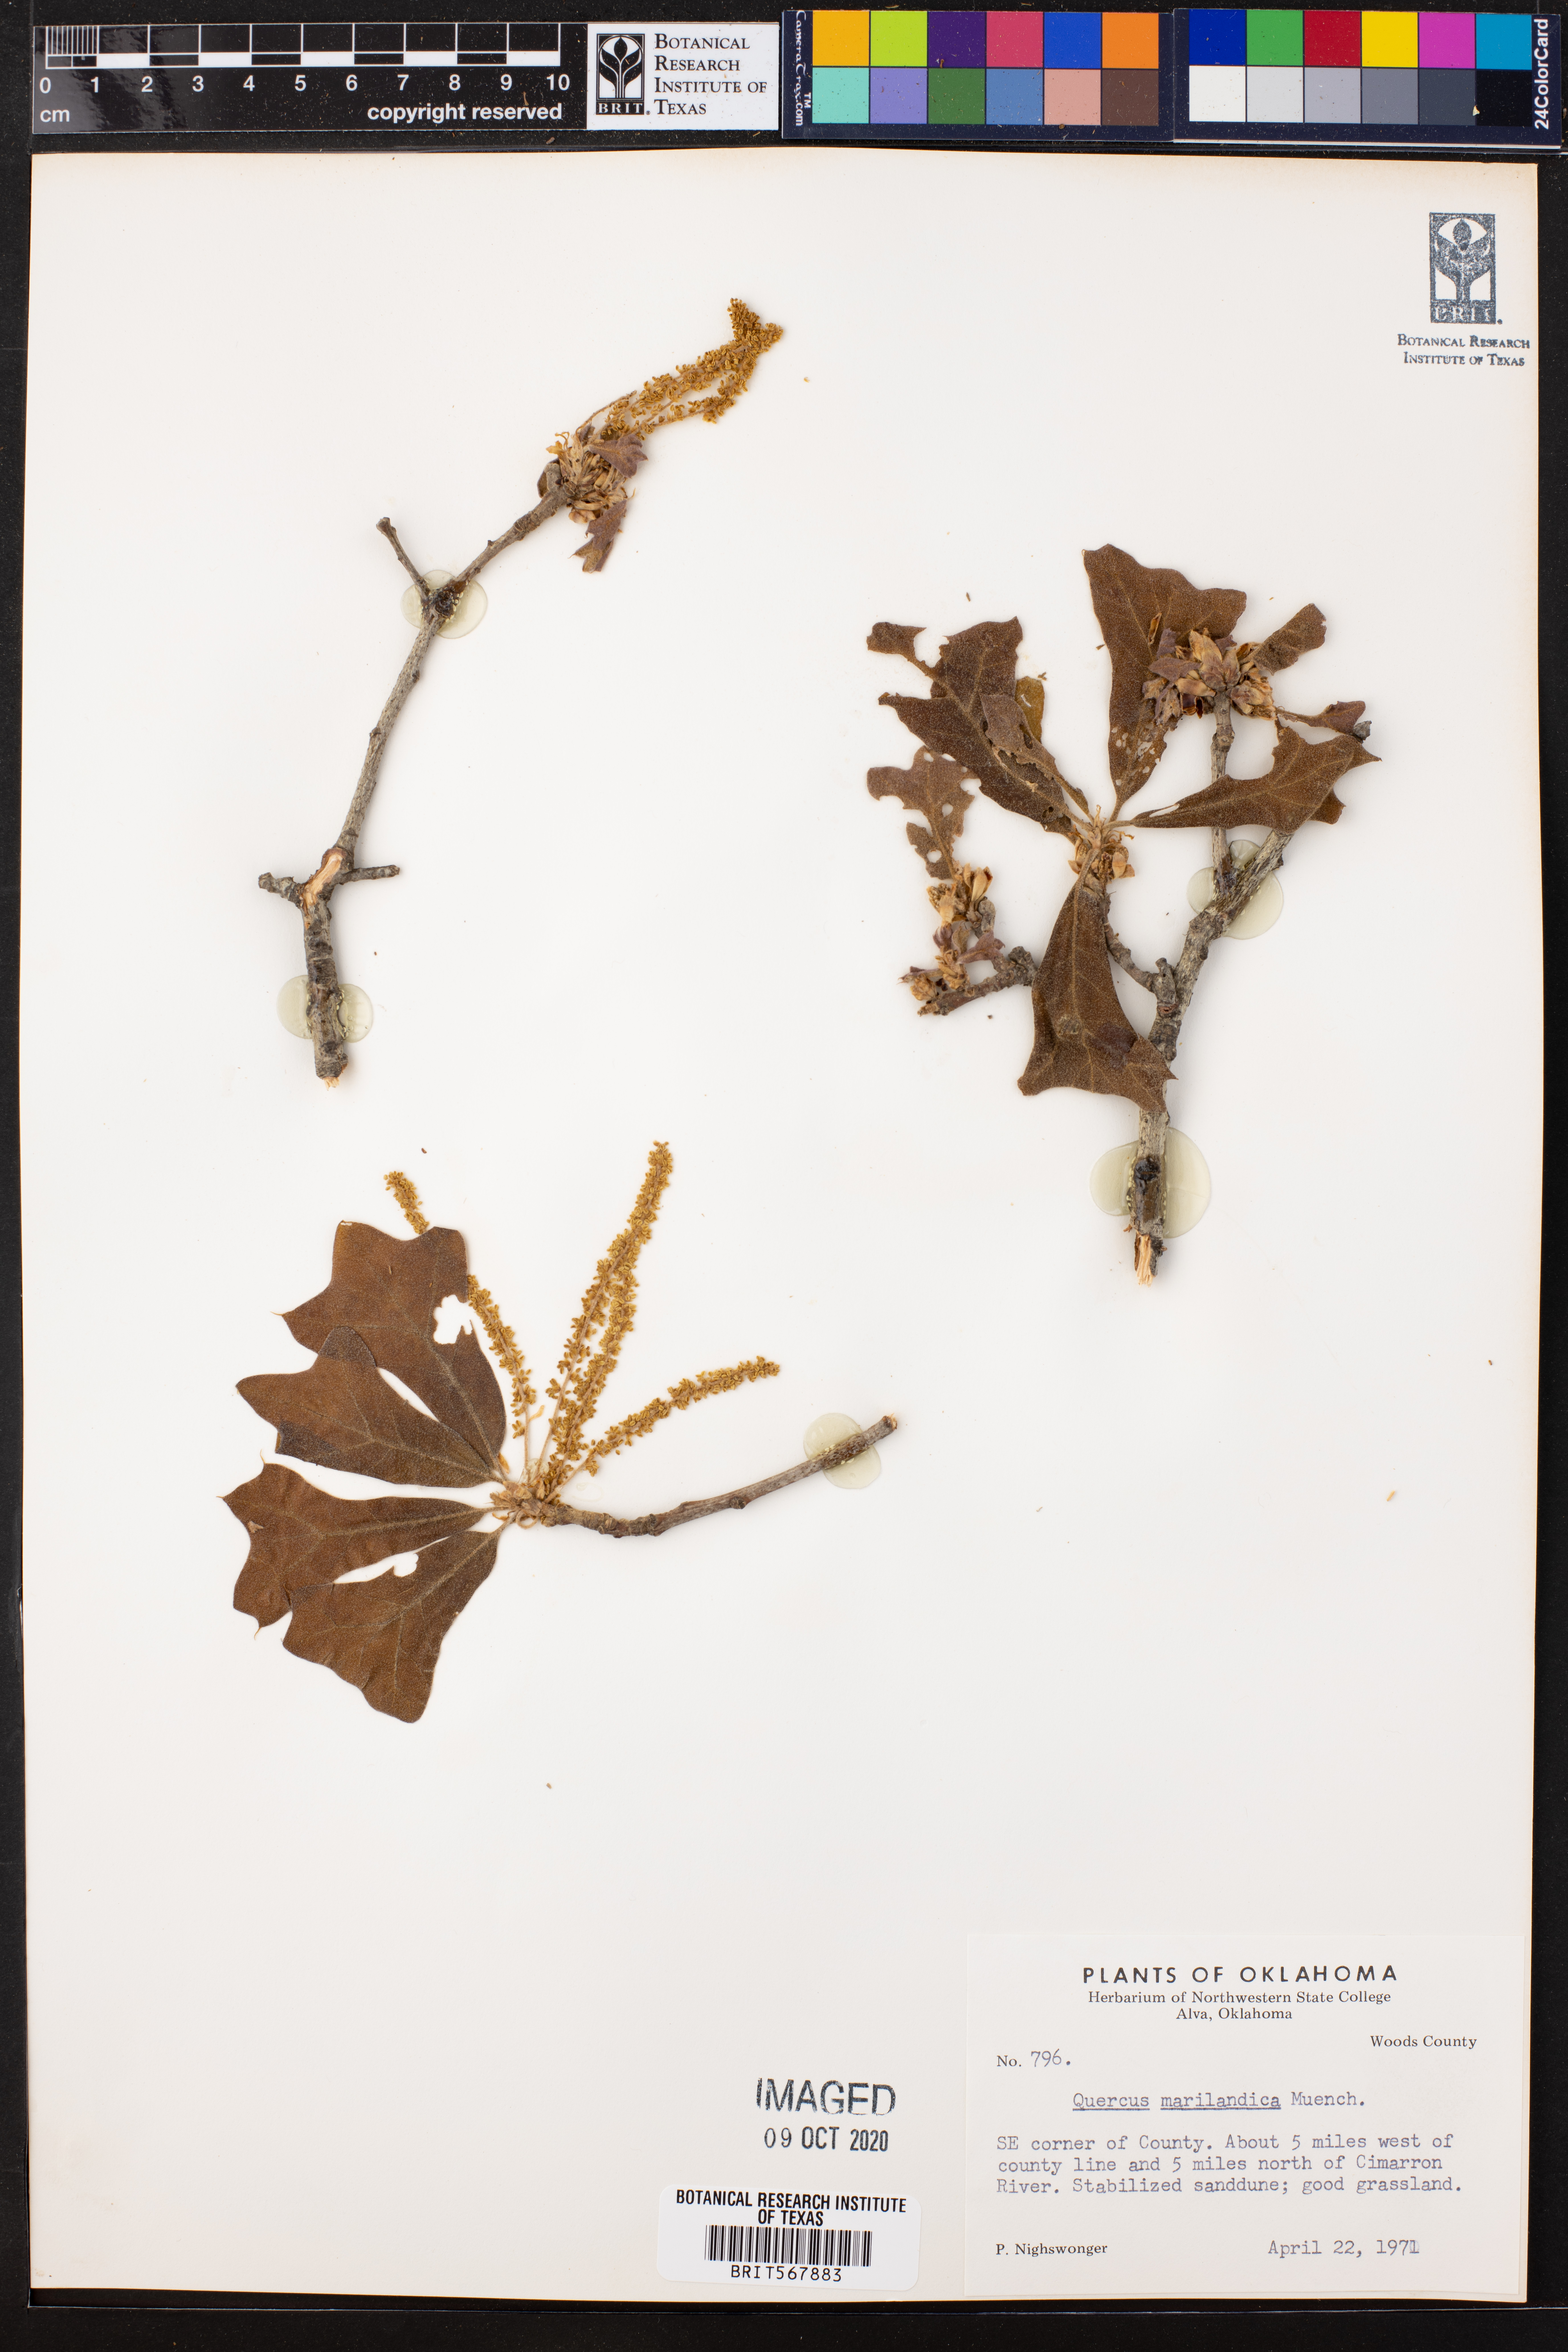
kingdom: Plantae
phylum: Tracheophyta
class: Magnoliopsida
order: Fagales
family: Fagaceae
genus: Quercus
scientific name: Quercus marilandica
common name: Blackjack oak
